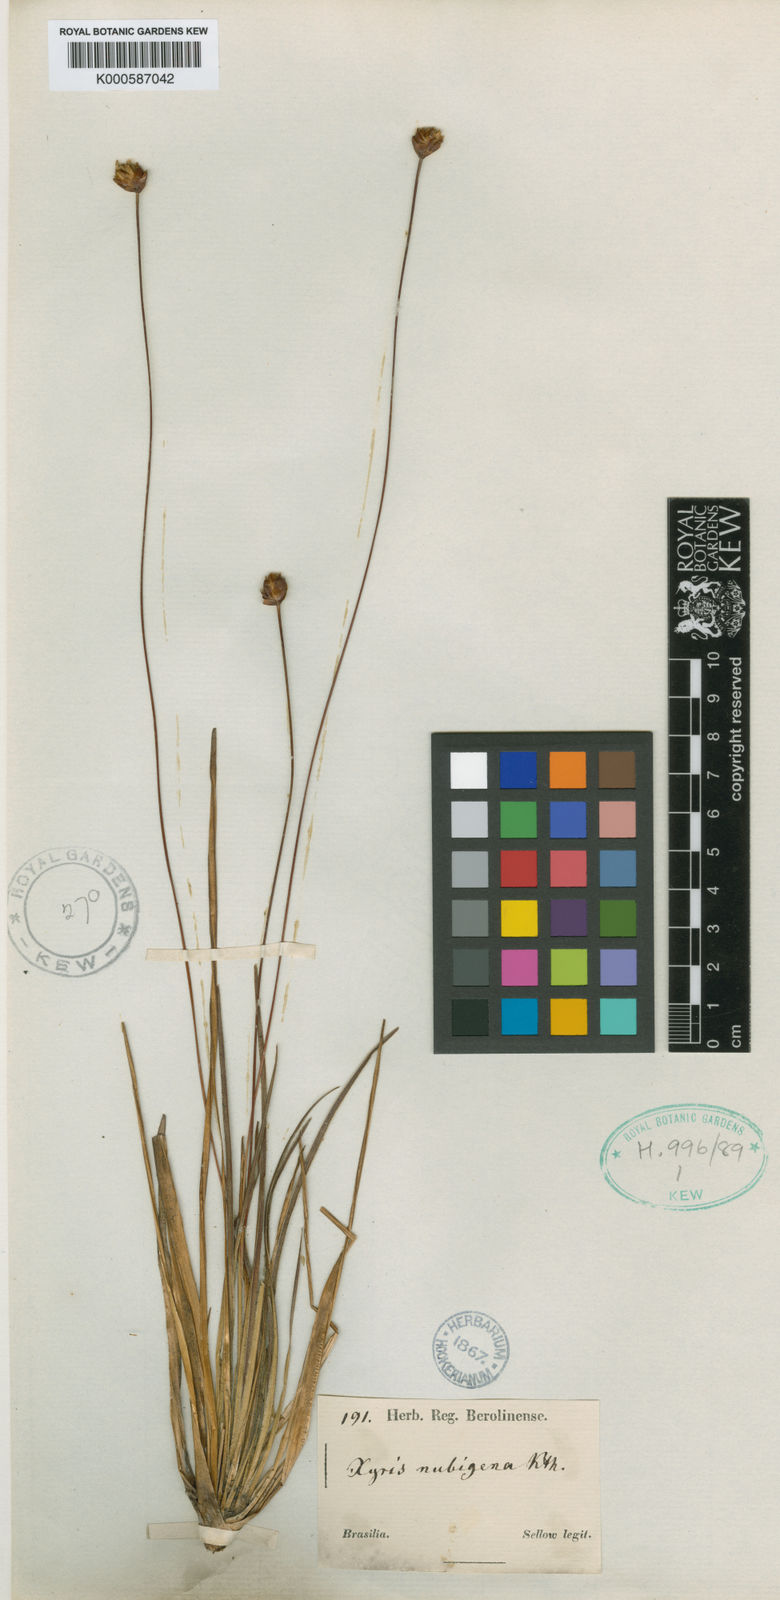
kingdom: Plantae
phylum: Tracheophyta
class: Liliopsida
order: Poales
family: Xyridaceae
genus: Xyris
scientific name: Xyris nubigena
